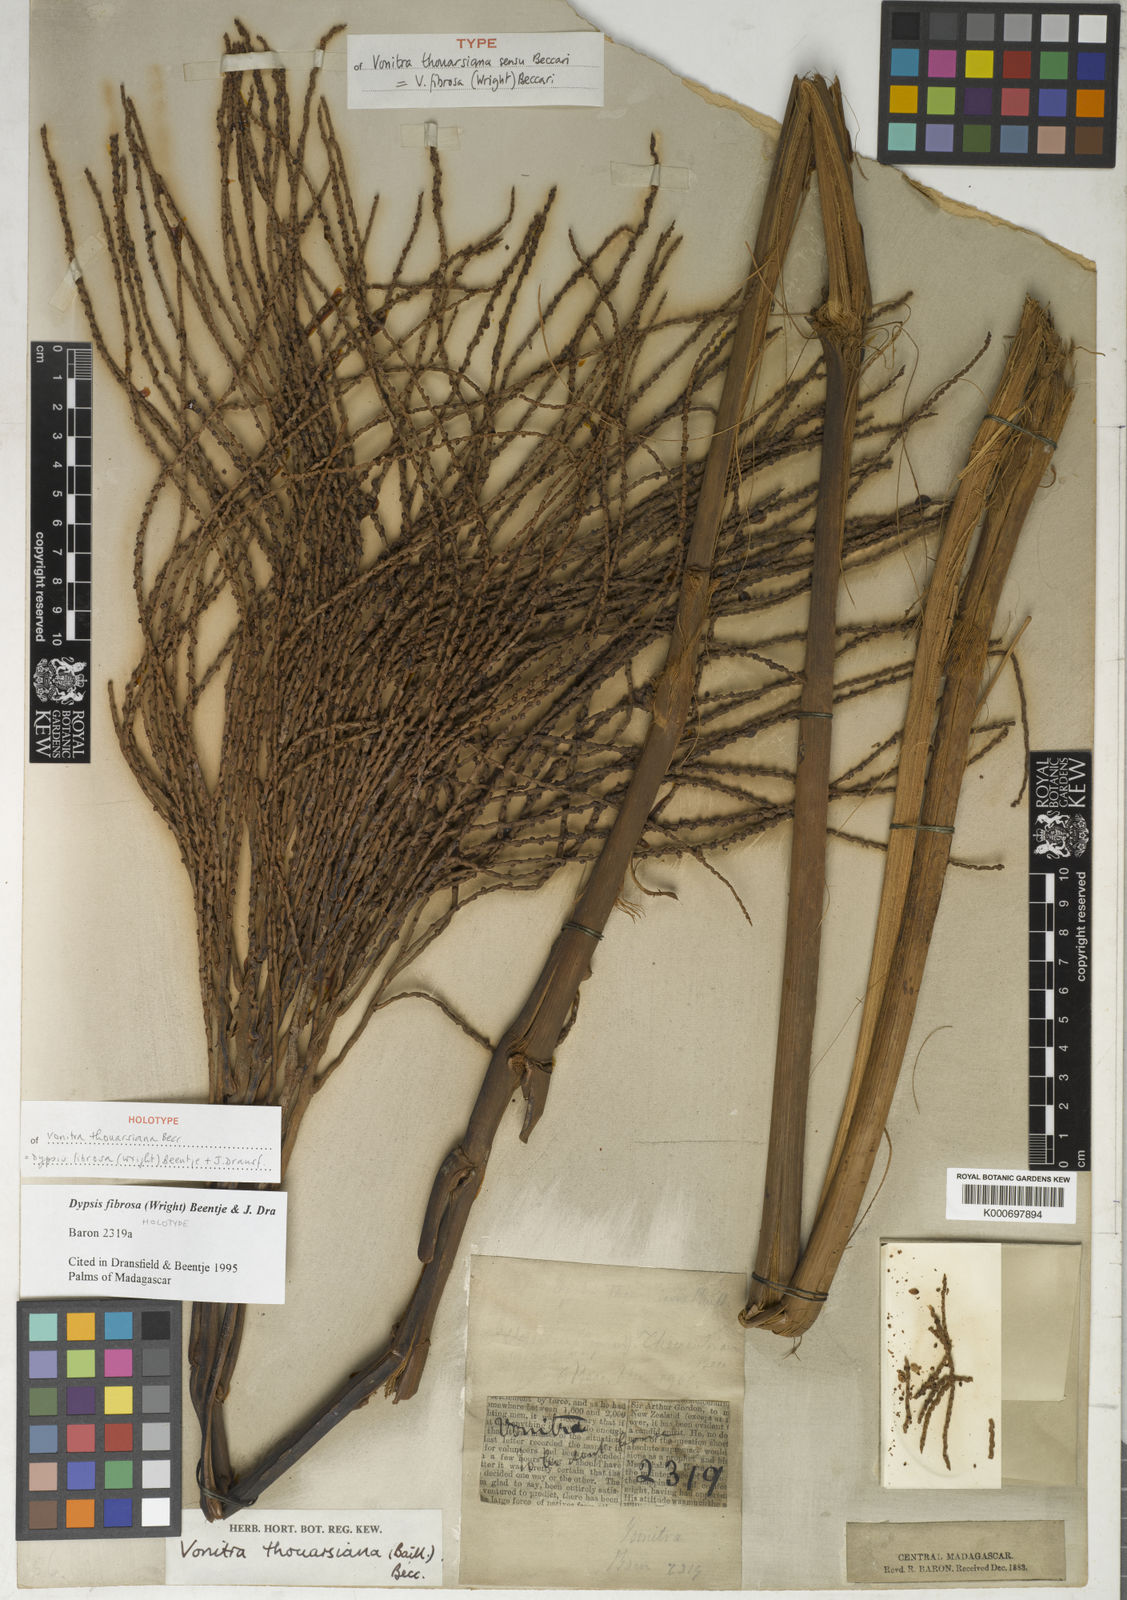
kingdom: Plantae
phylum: Tracheophyta
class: Liliopsida
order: Arecales
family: Arecaceae
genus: Dypsis
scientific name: Dypsis fibrosa
